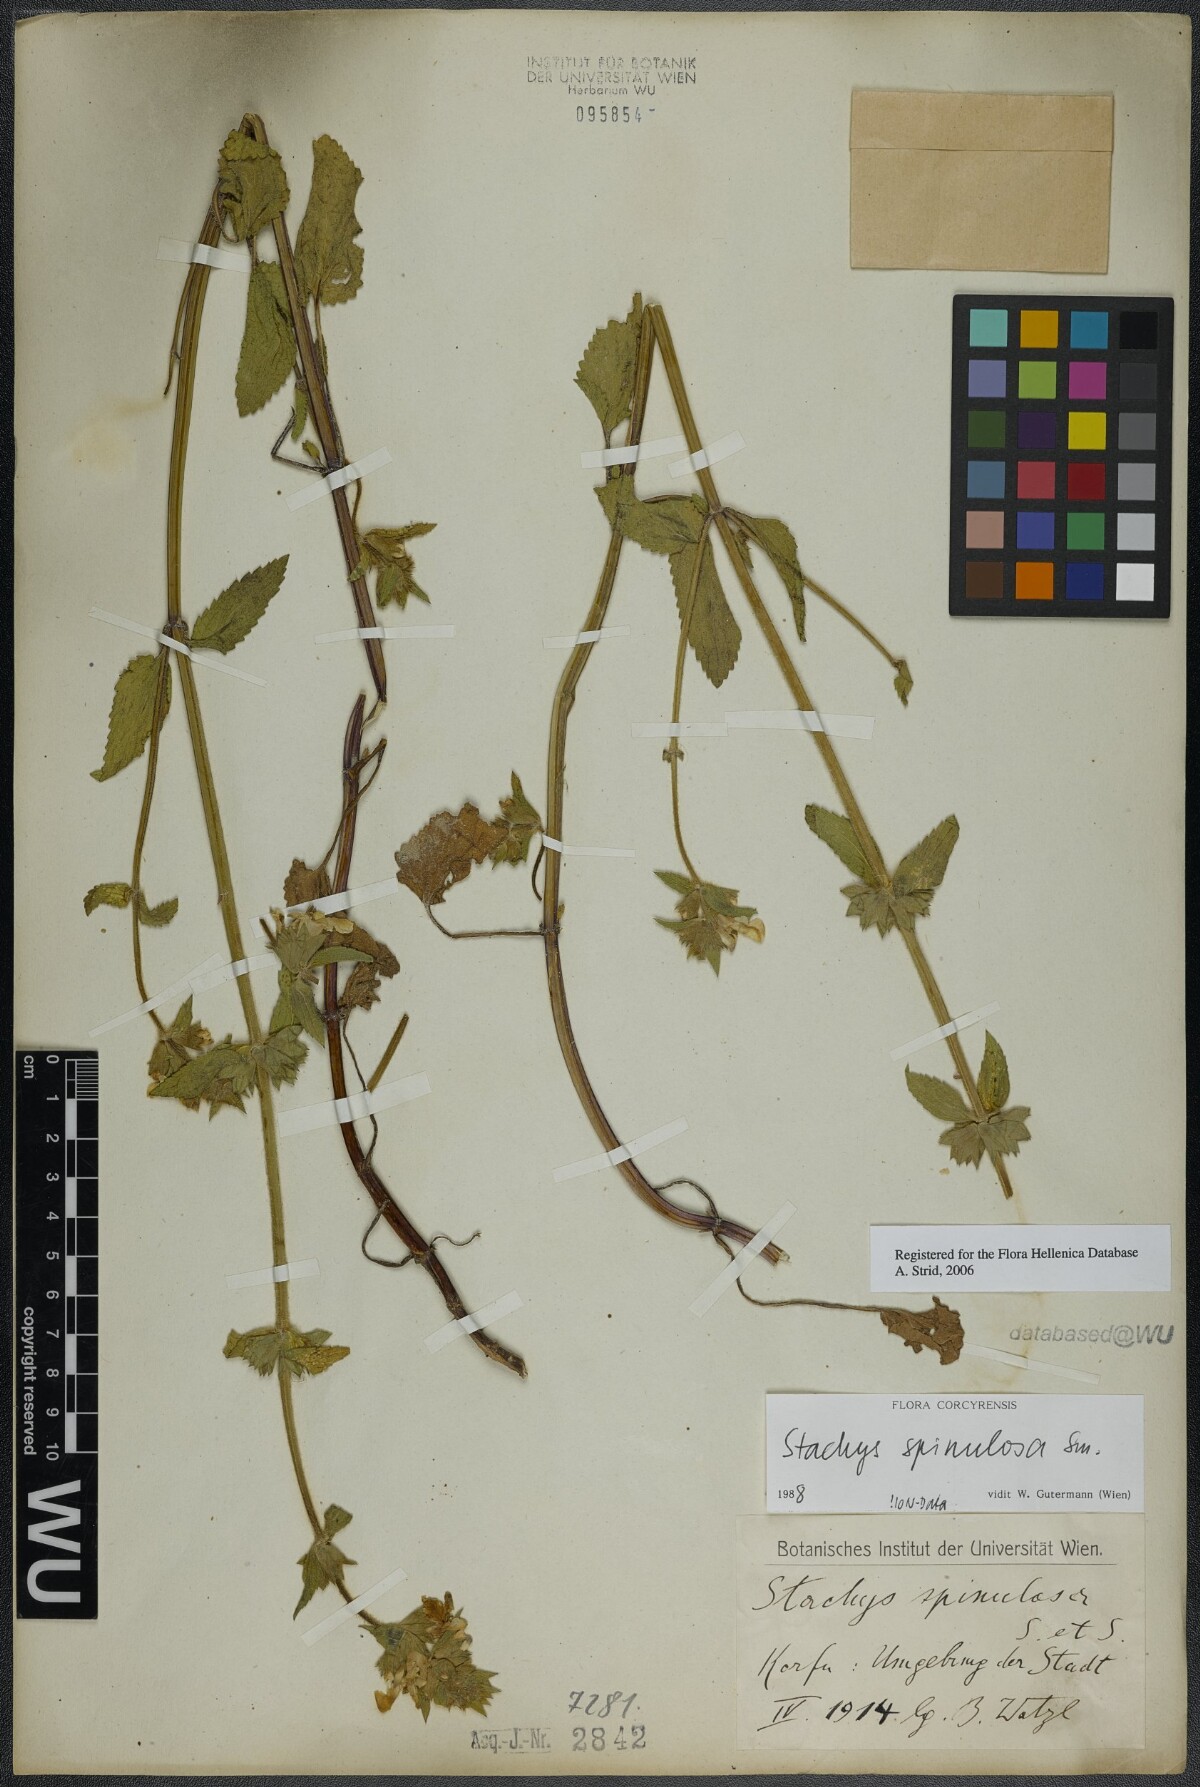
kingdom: Plantae
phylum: Tracheophyta
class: Magnoliopsida
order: Lamiales
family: Lamiaceae
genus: Stachys
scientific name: Stachys spinulosa
